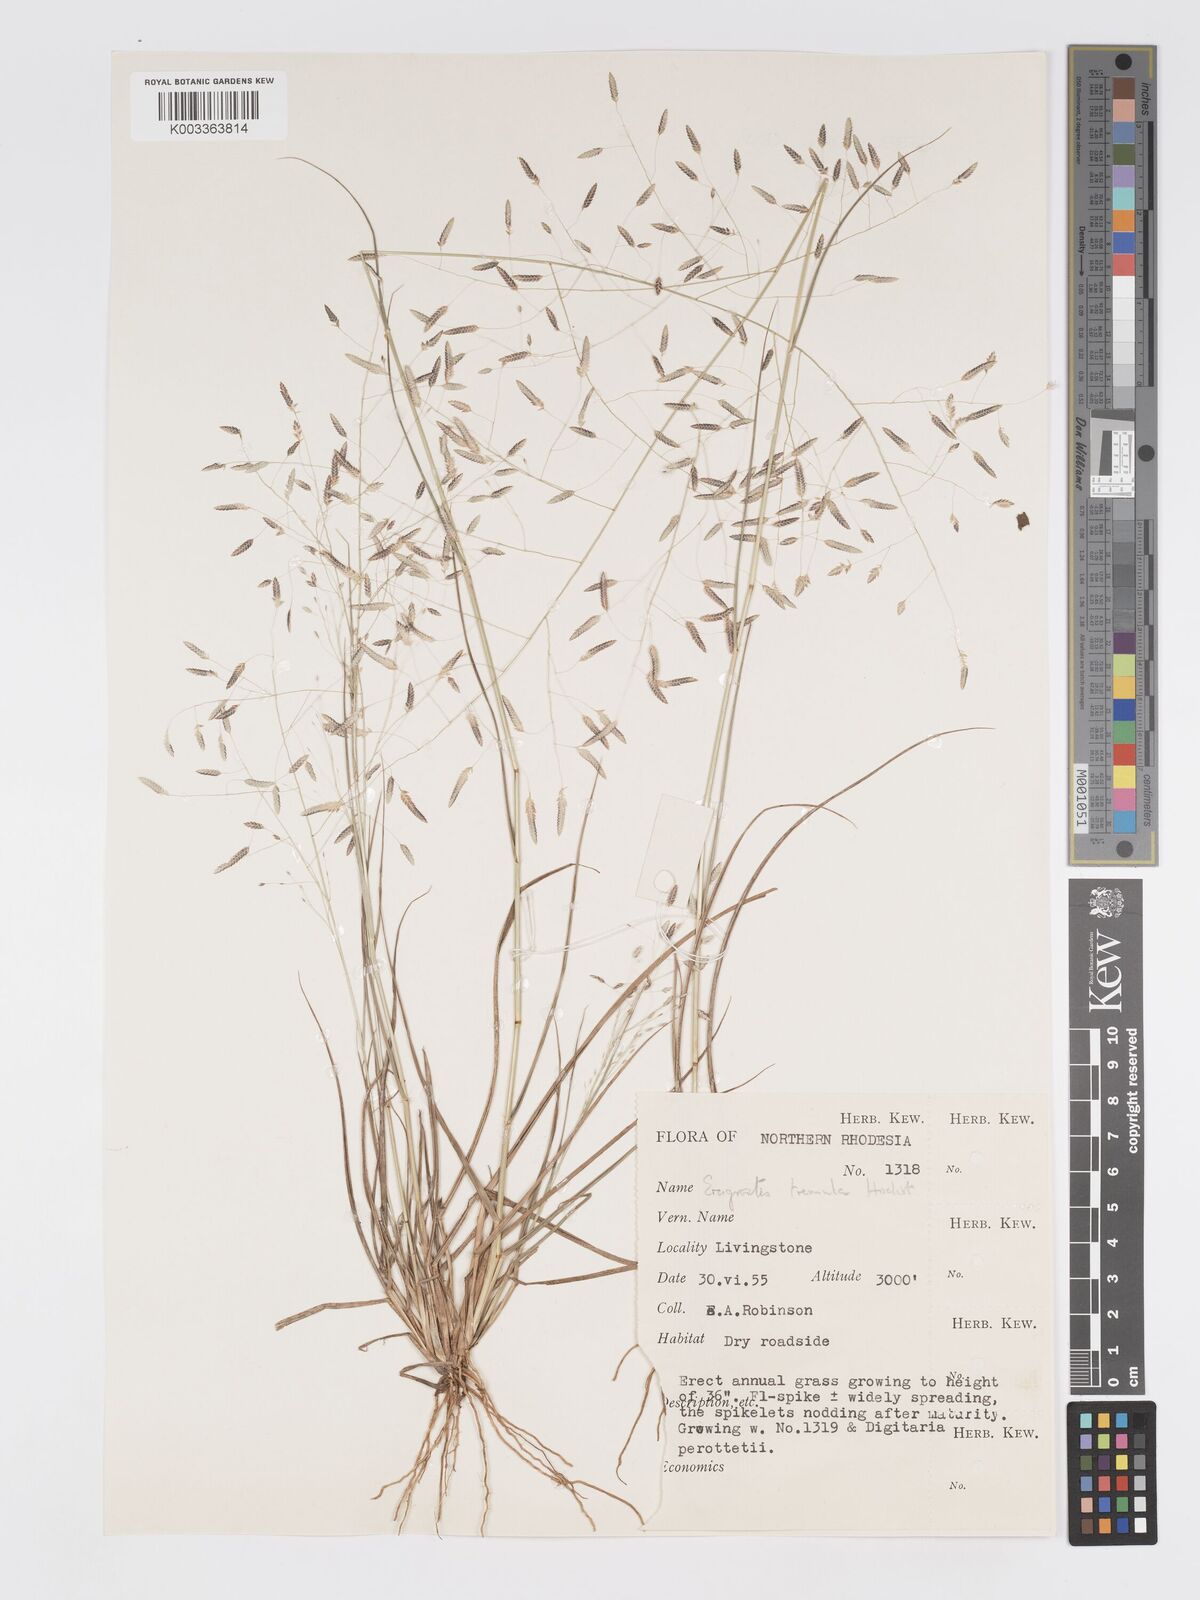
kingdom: Plantae
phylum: Tracheophyta
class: Liliopsida
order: Poales
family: Poaceae
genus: Eragrostis
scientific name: Eragrostis tremula
